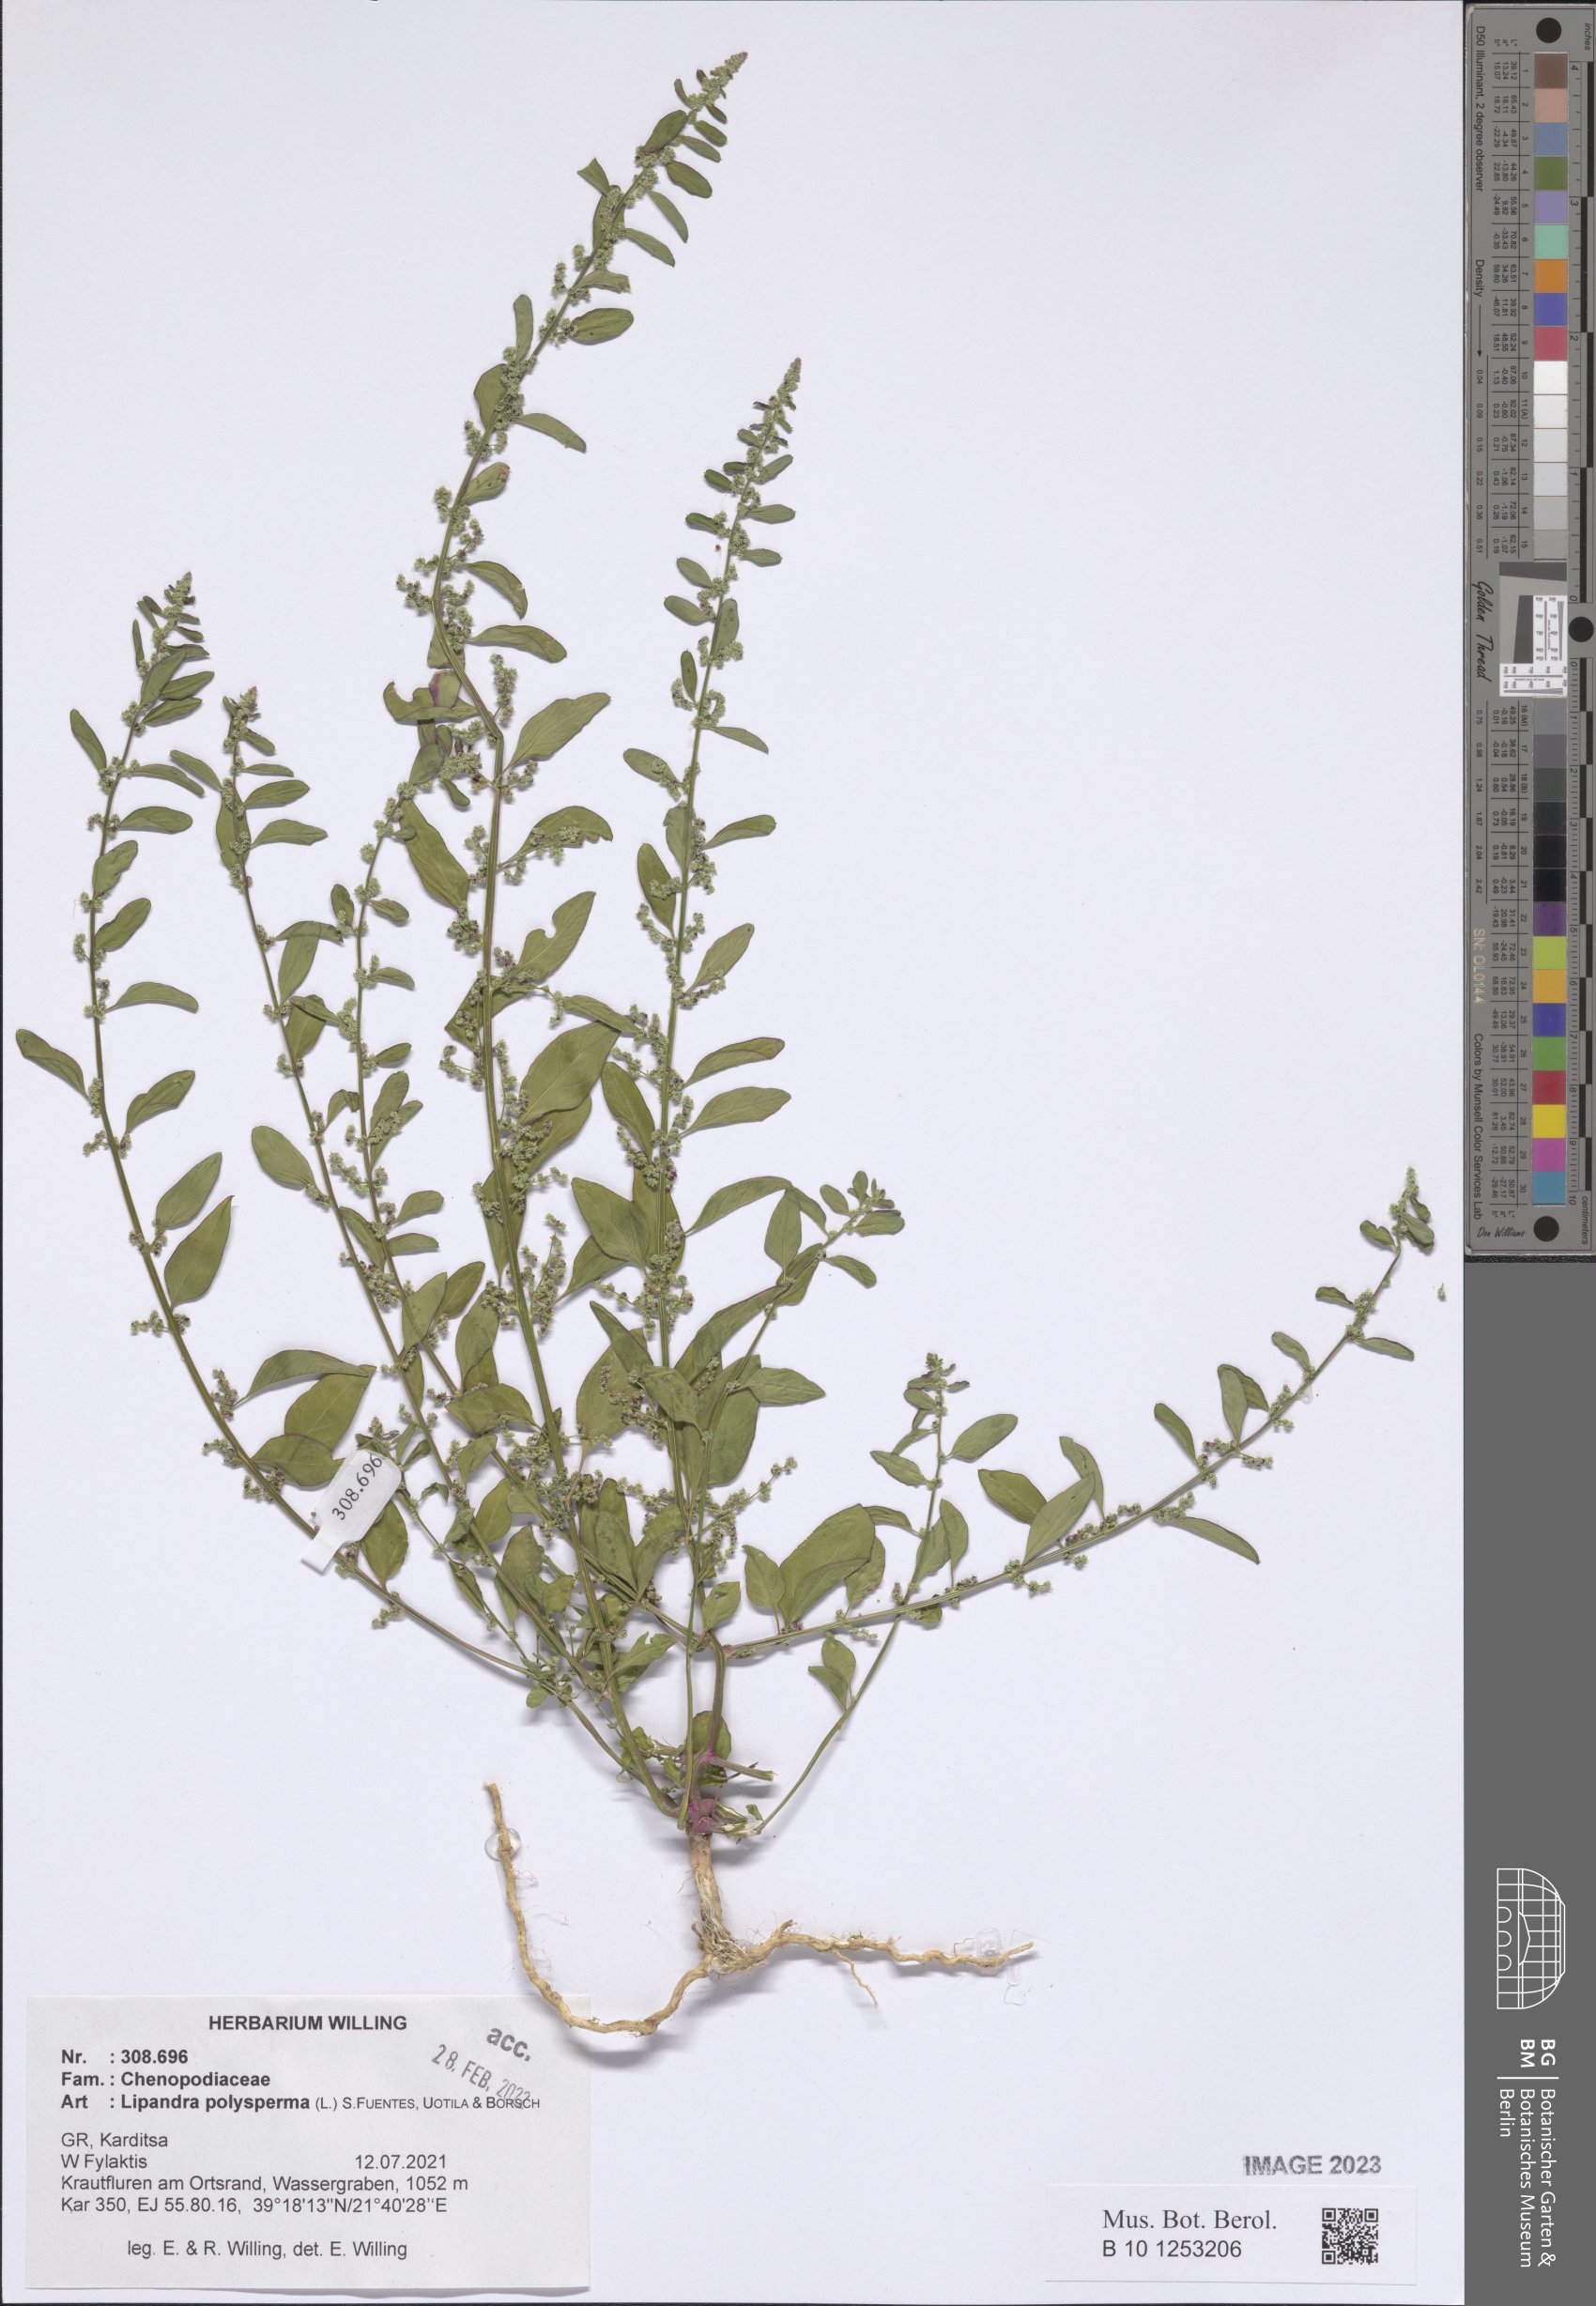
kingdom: Plantae
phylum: Tracheophyta
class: Magnoliopsida
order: Caryophyllales
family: Amaranthaceae
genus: Lipandra
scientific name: Lipandra polysperma
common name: Many-seed goosefoot
